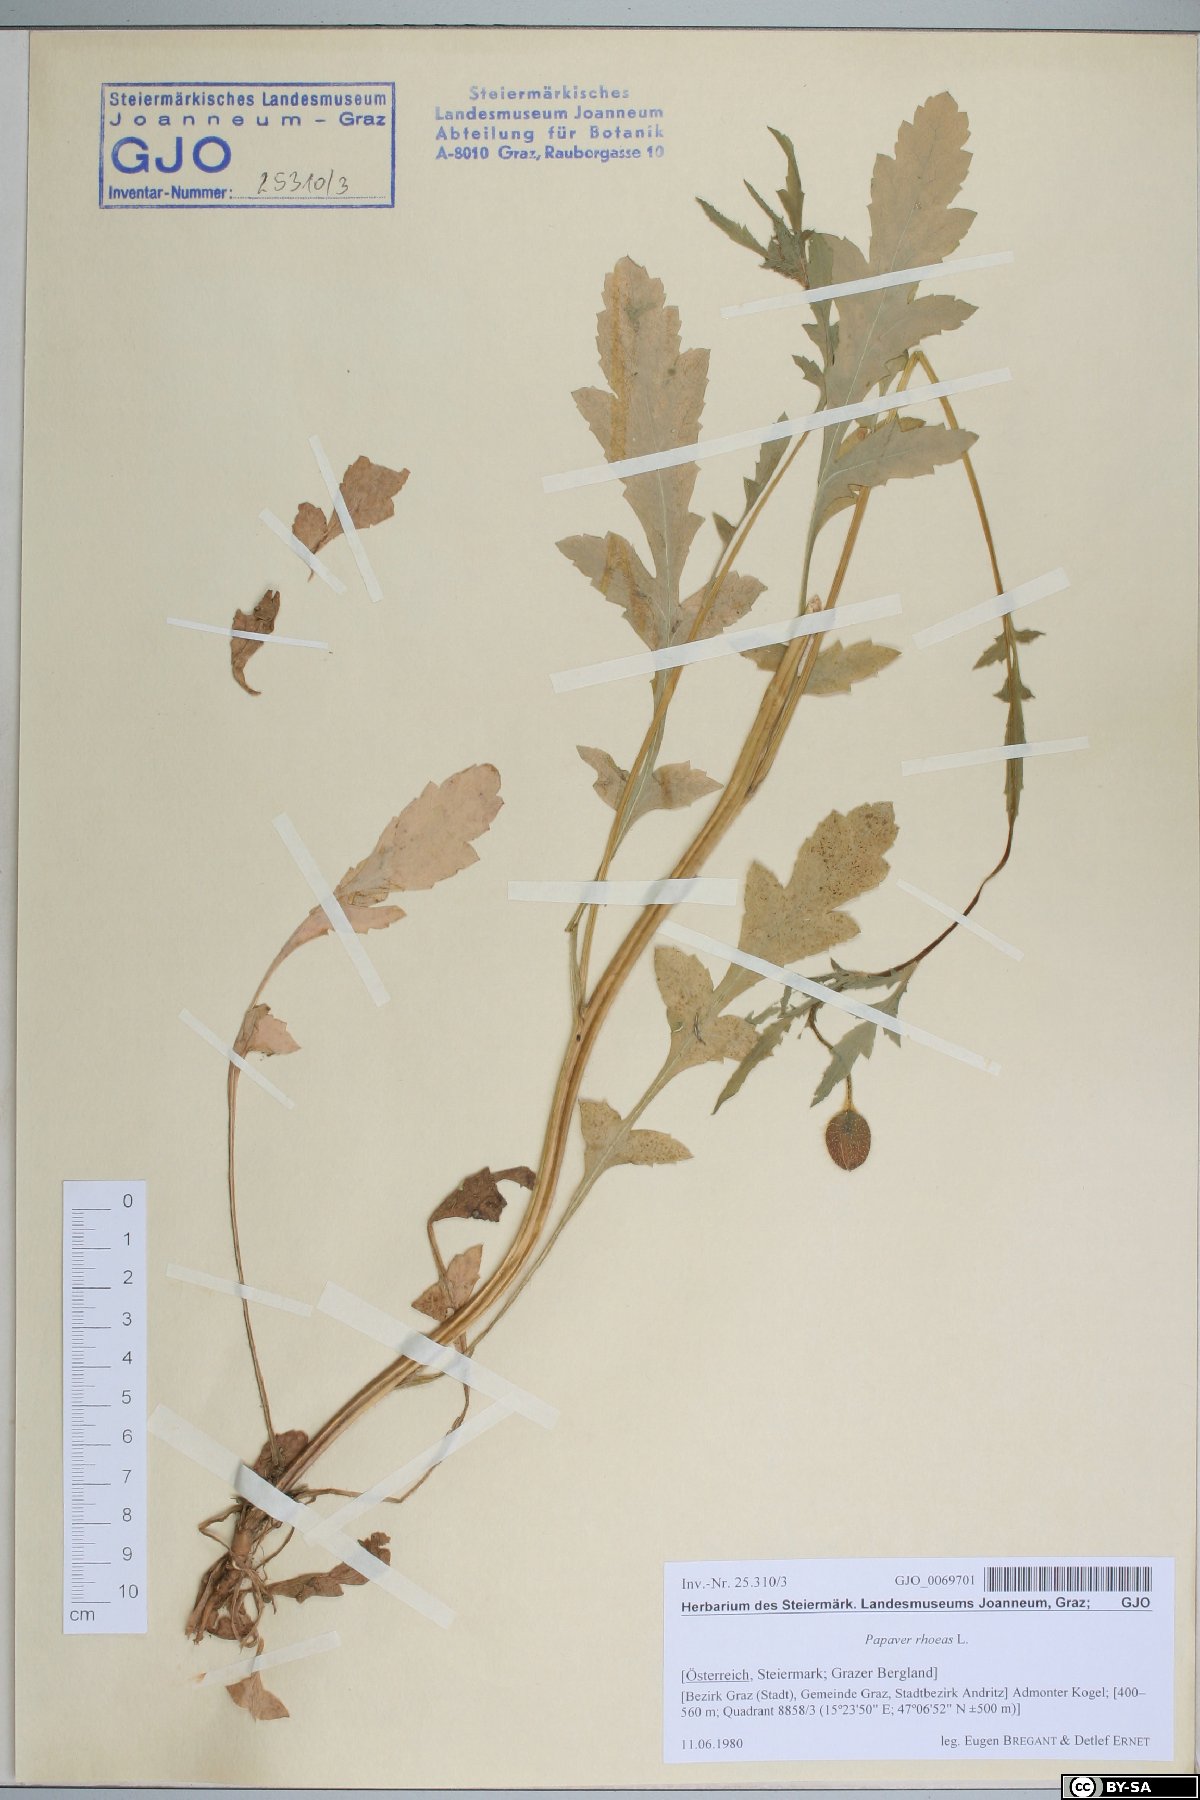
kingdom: Plantae
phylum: Tracheophyta
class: Magnoliopsida
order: Ranunculales
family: Papaveraceae
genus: Papaver
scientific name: Papaver rhoeas
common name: Corn poppy
